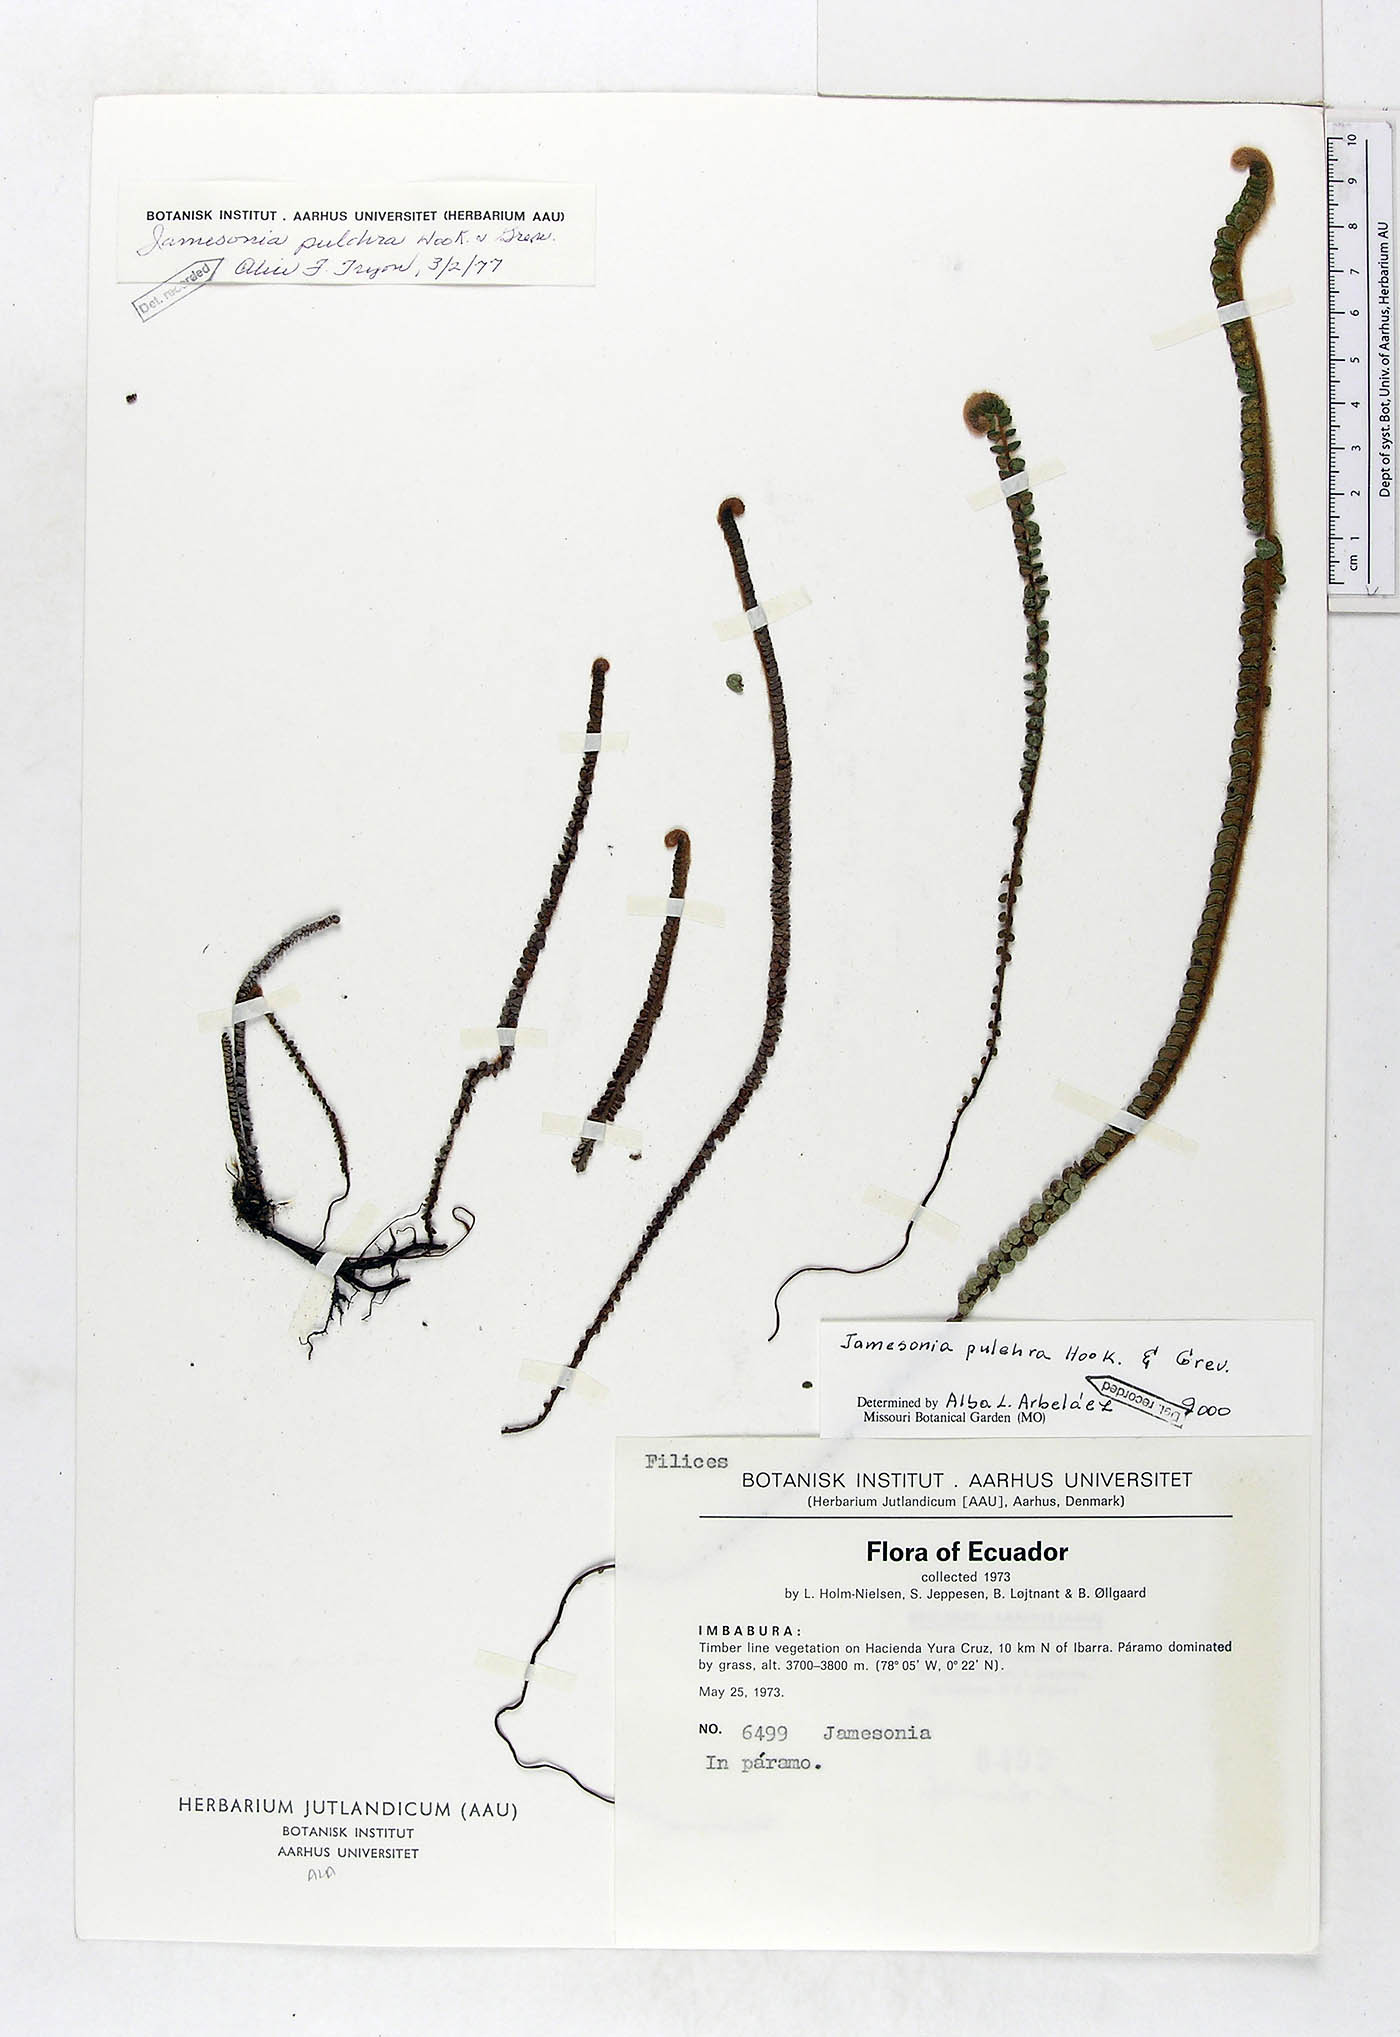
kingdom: Plantae
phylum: Tracheophyta
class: Polypodiopsida
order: Polypodiales
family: Pteridaceae
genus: Jamesonia
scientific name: Jamesonia pulchra
